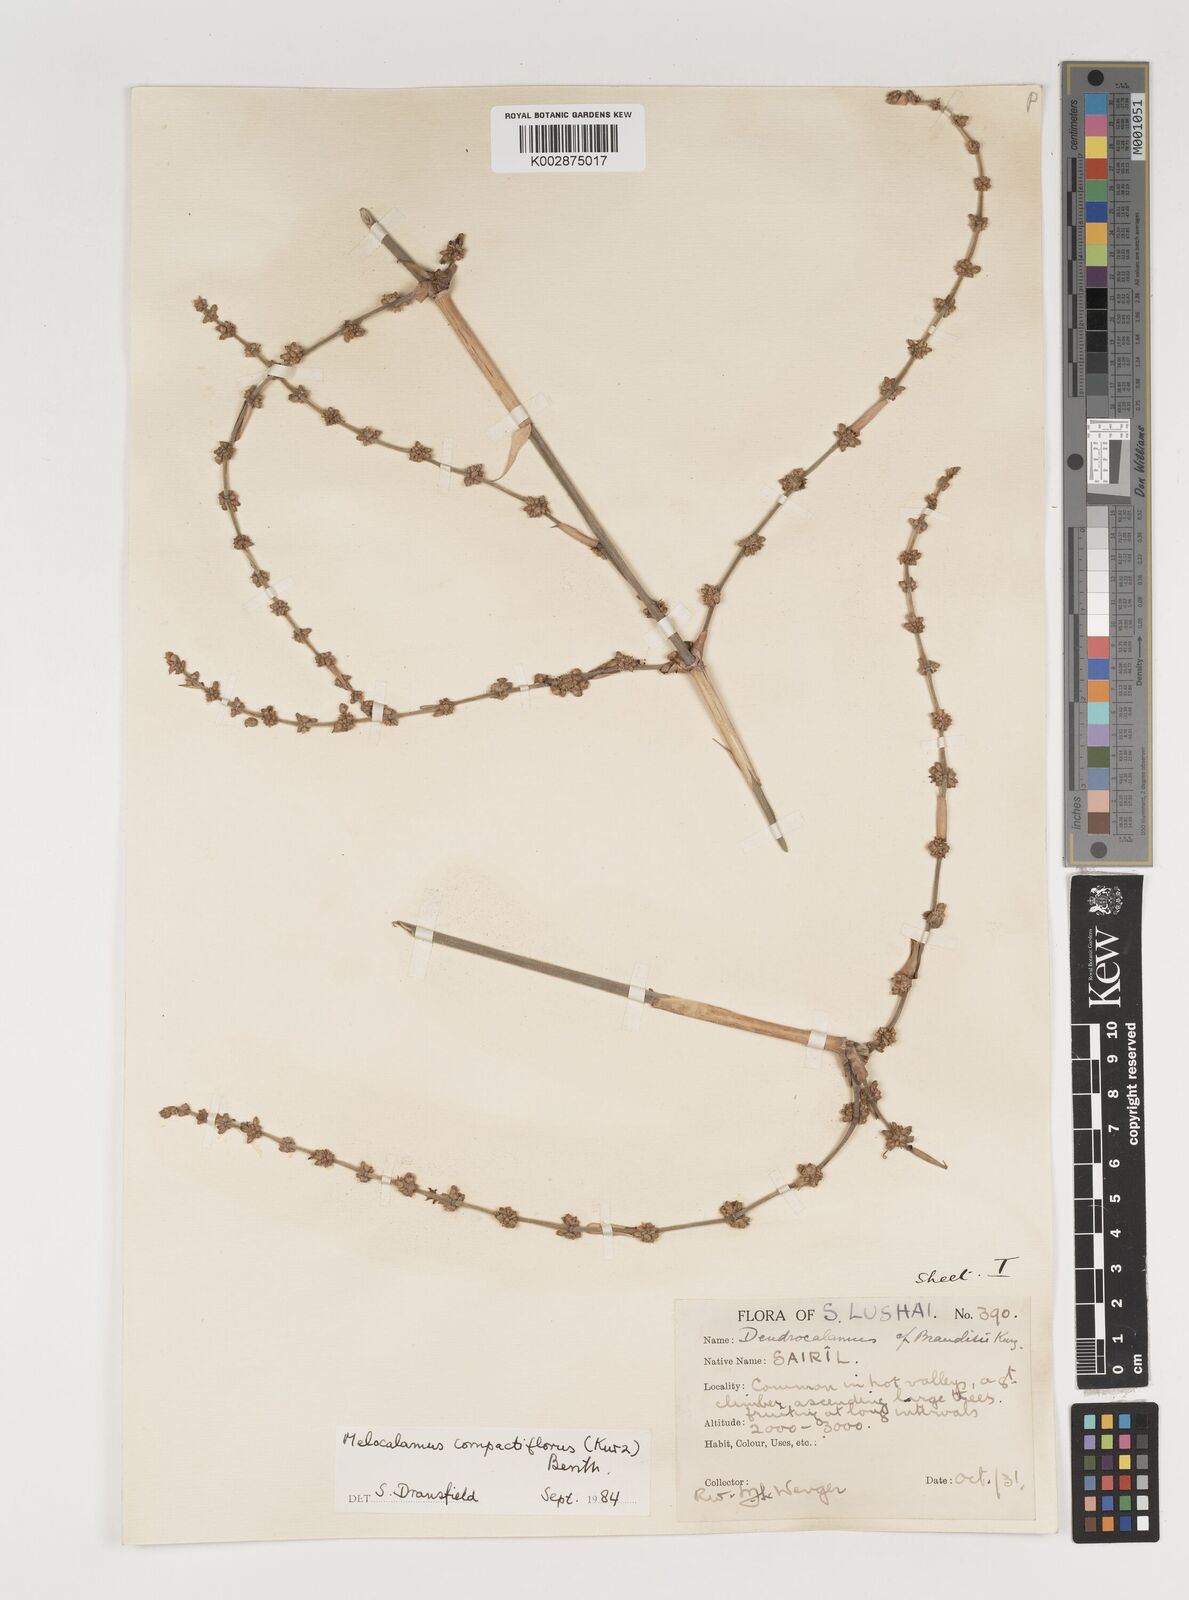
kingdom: Plantae
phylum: Tracheophyta
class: Liliopsida
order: Poales
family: Poaceae
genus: Melocalamus
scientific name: Melocalamus
